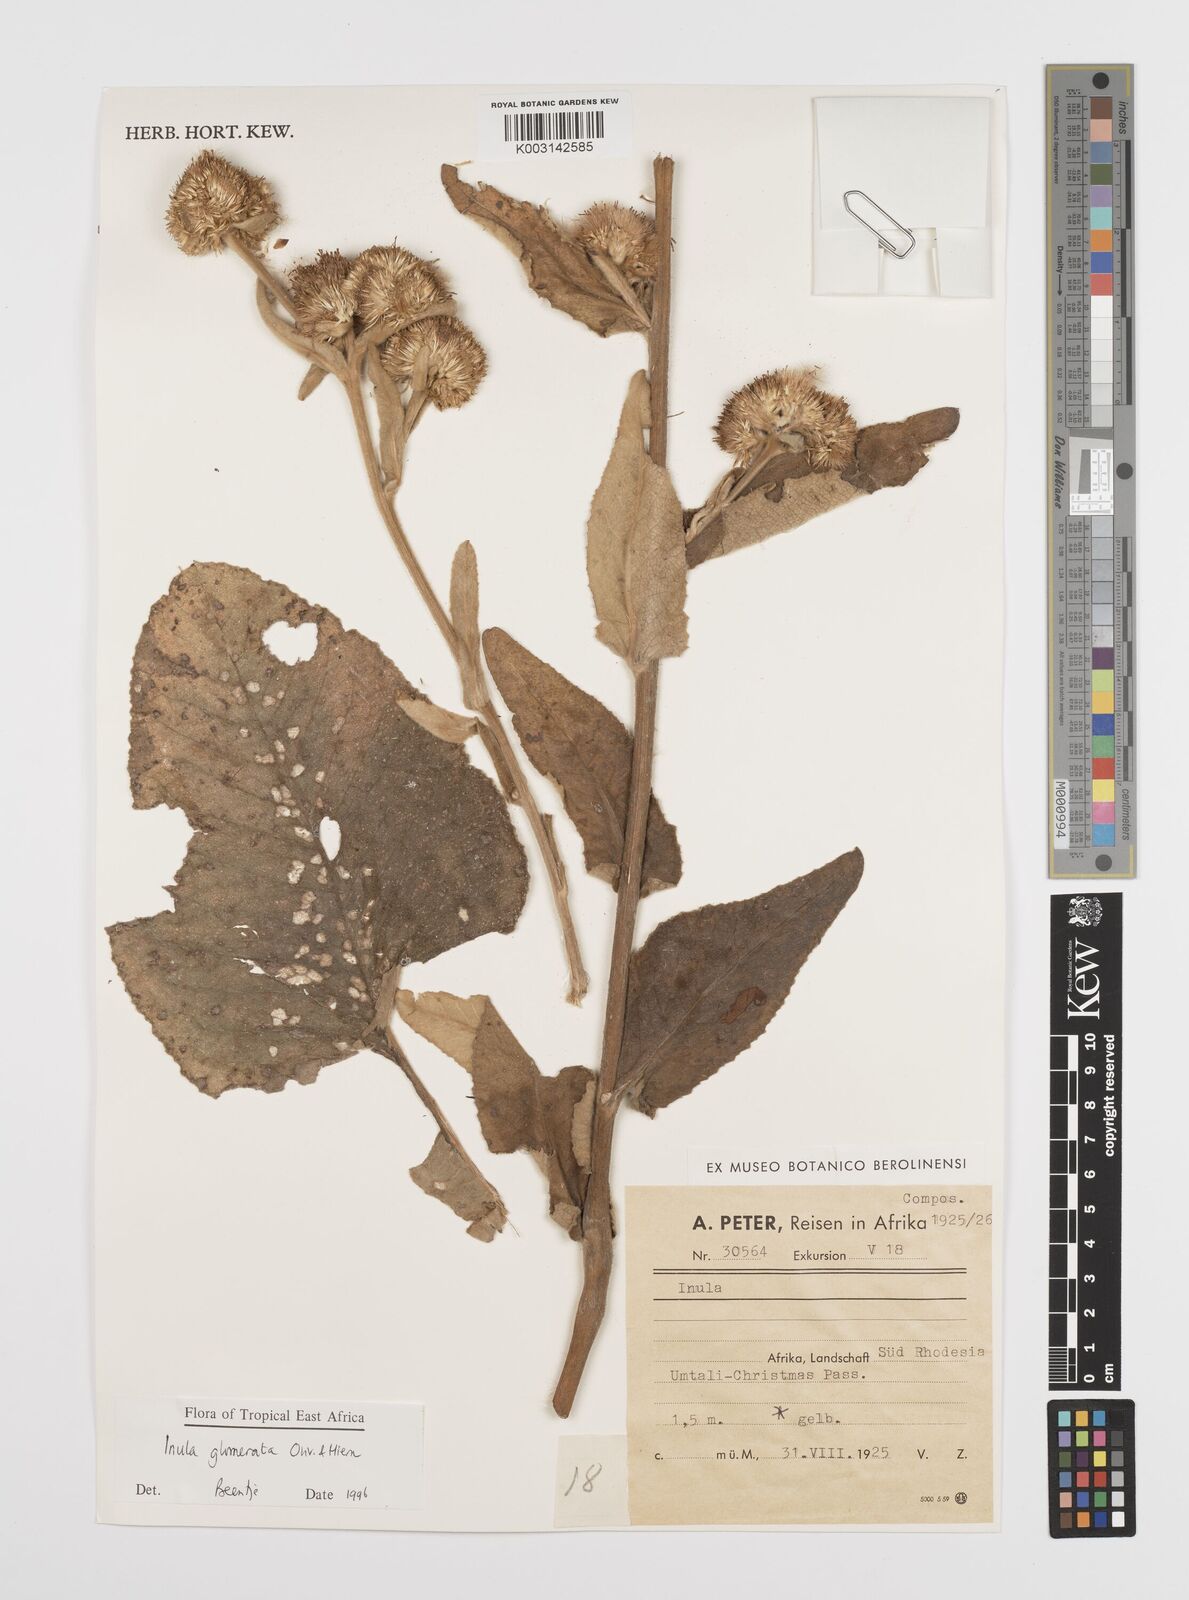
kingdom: Plantae
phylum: Tracheophyta
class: Magnoliopsida
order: Asterales
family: Asteraceae
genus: Inula
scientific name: Inula glomerata
